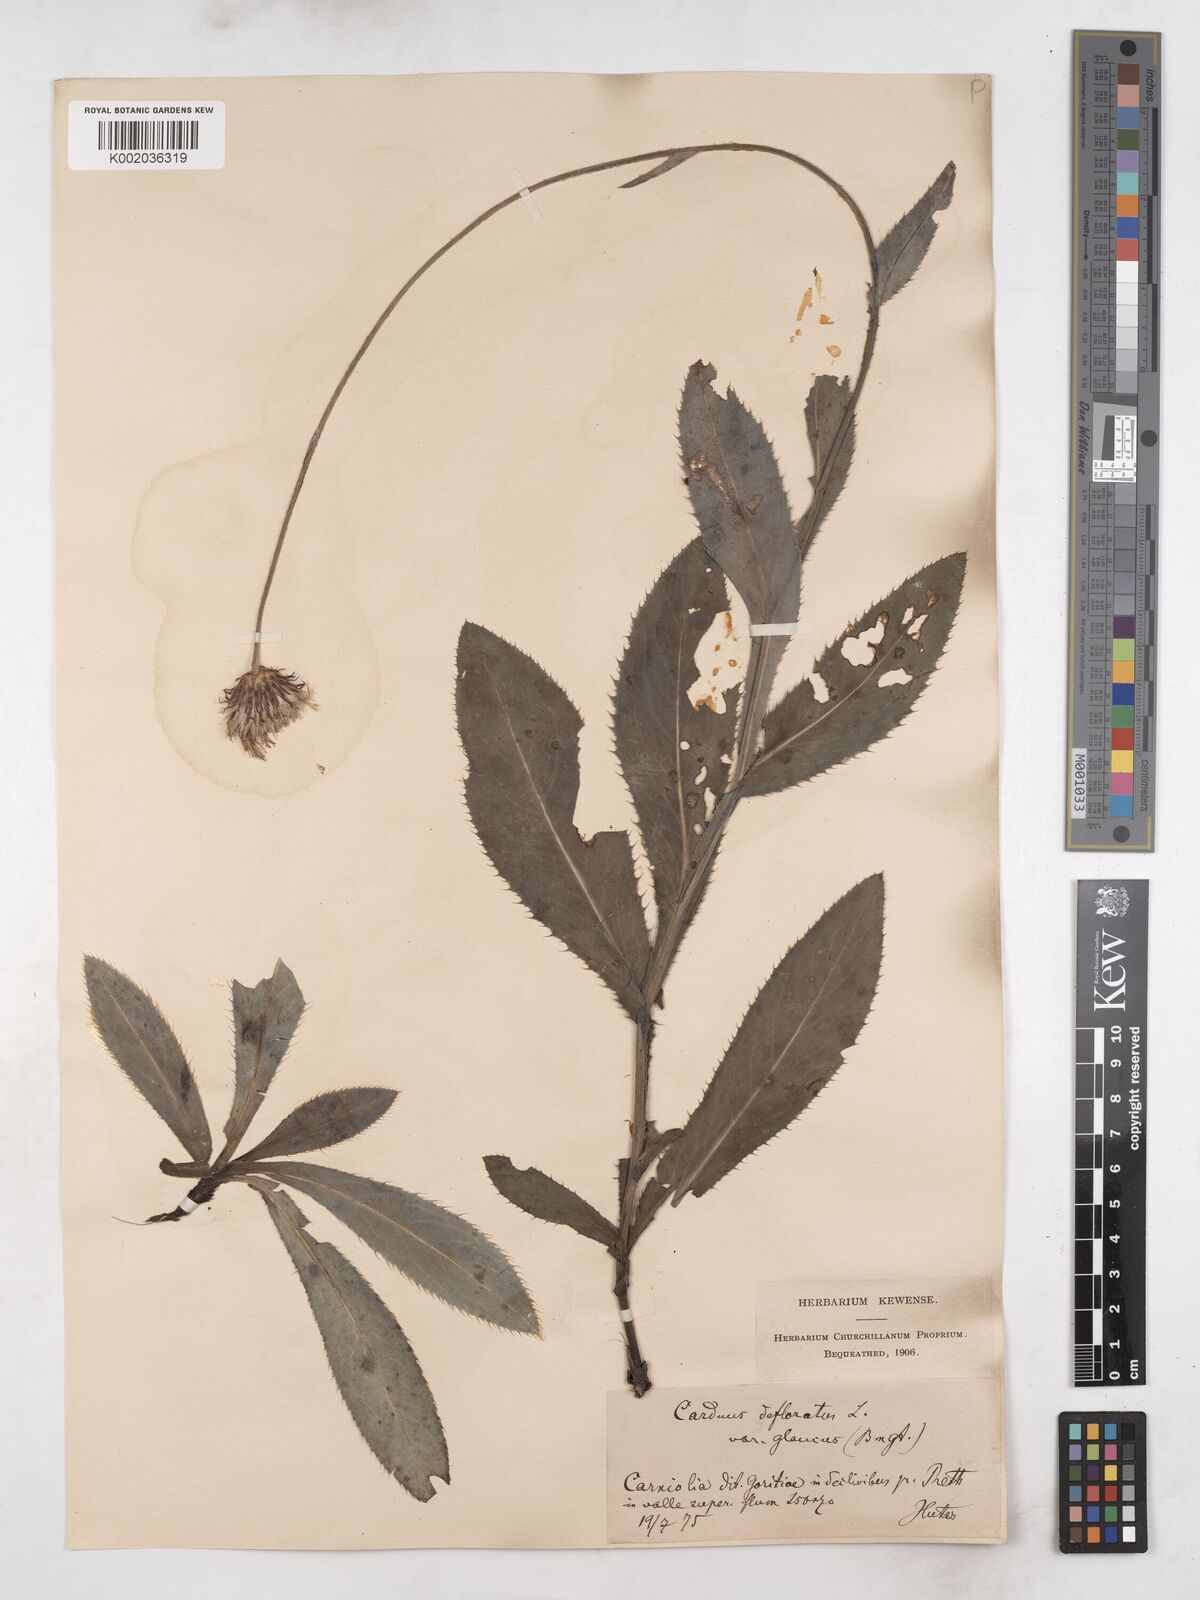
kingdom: Plantae
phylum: Tracheophyta
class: Magnoliopsida
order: Asterales
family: Asteraceae
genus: Carduus
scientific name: Carduus defloratus
